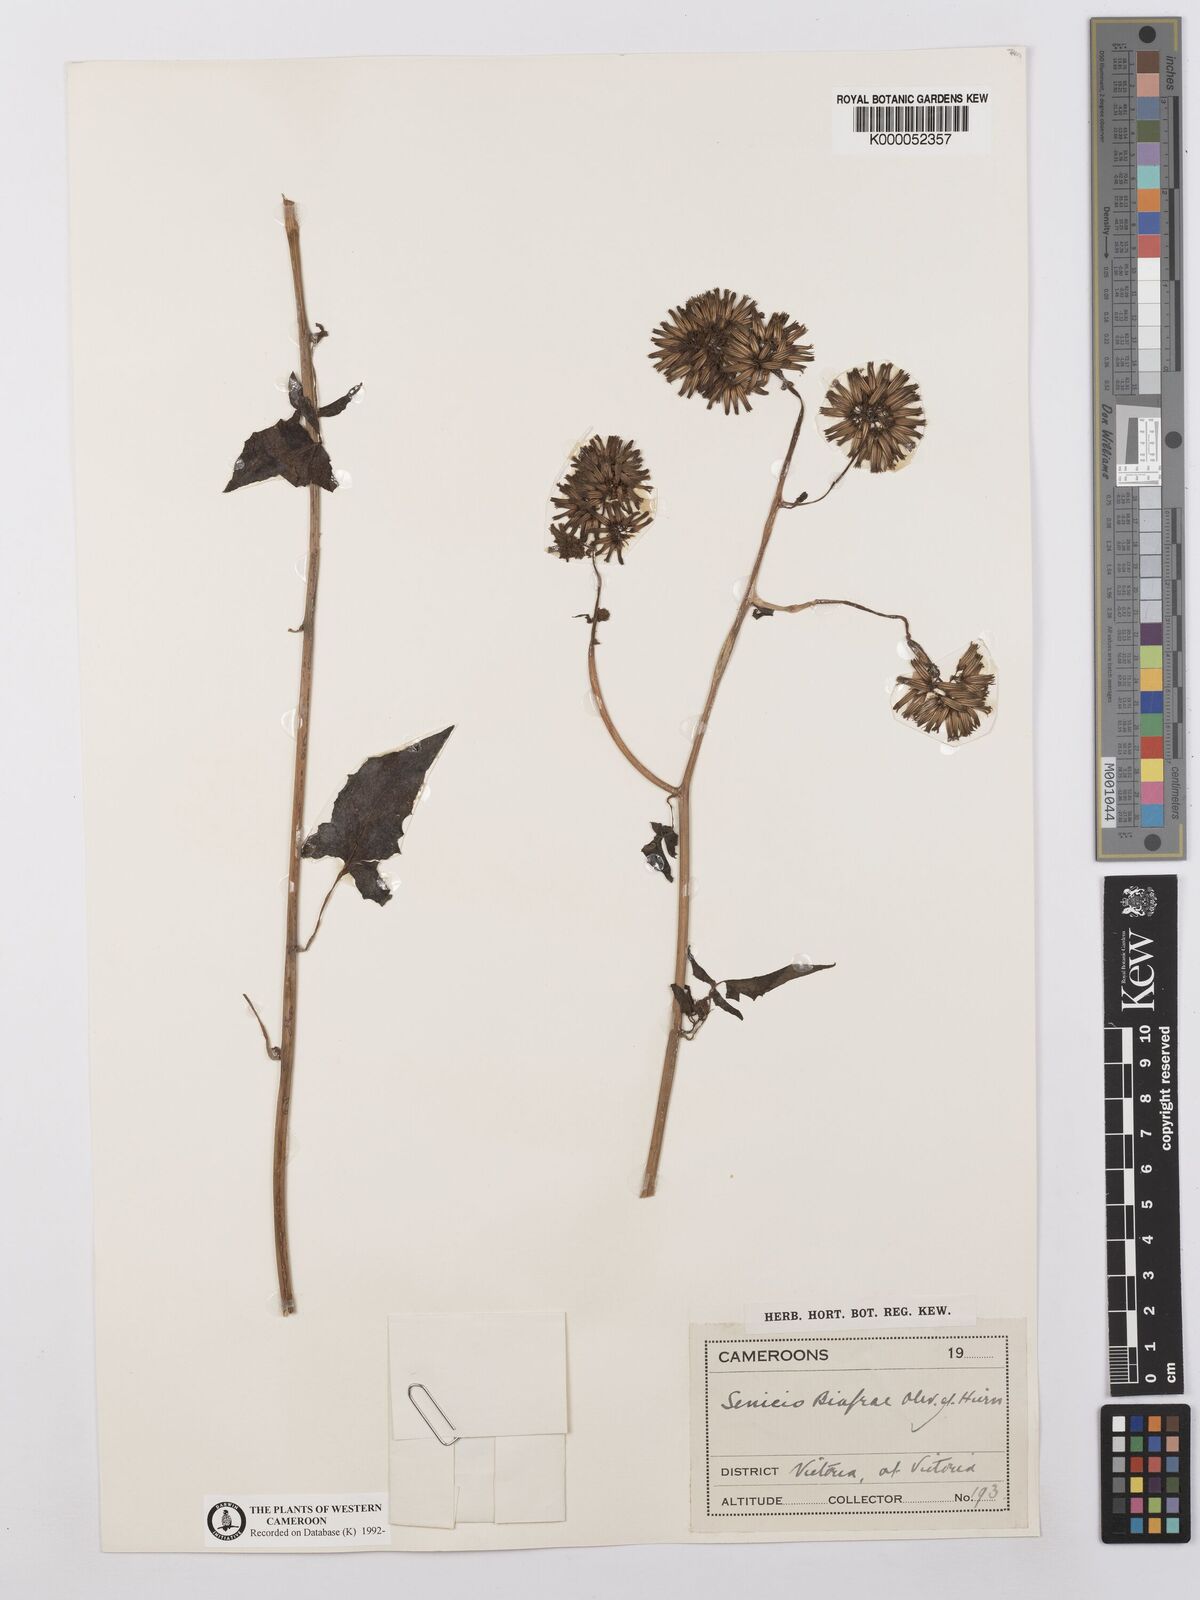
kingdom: Plantae
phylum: Tracheophyta
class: Magnoliopsida
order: Asterales
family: Asteraceae
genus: Solanecio
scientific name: Solanecio biafrae
